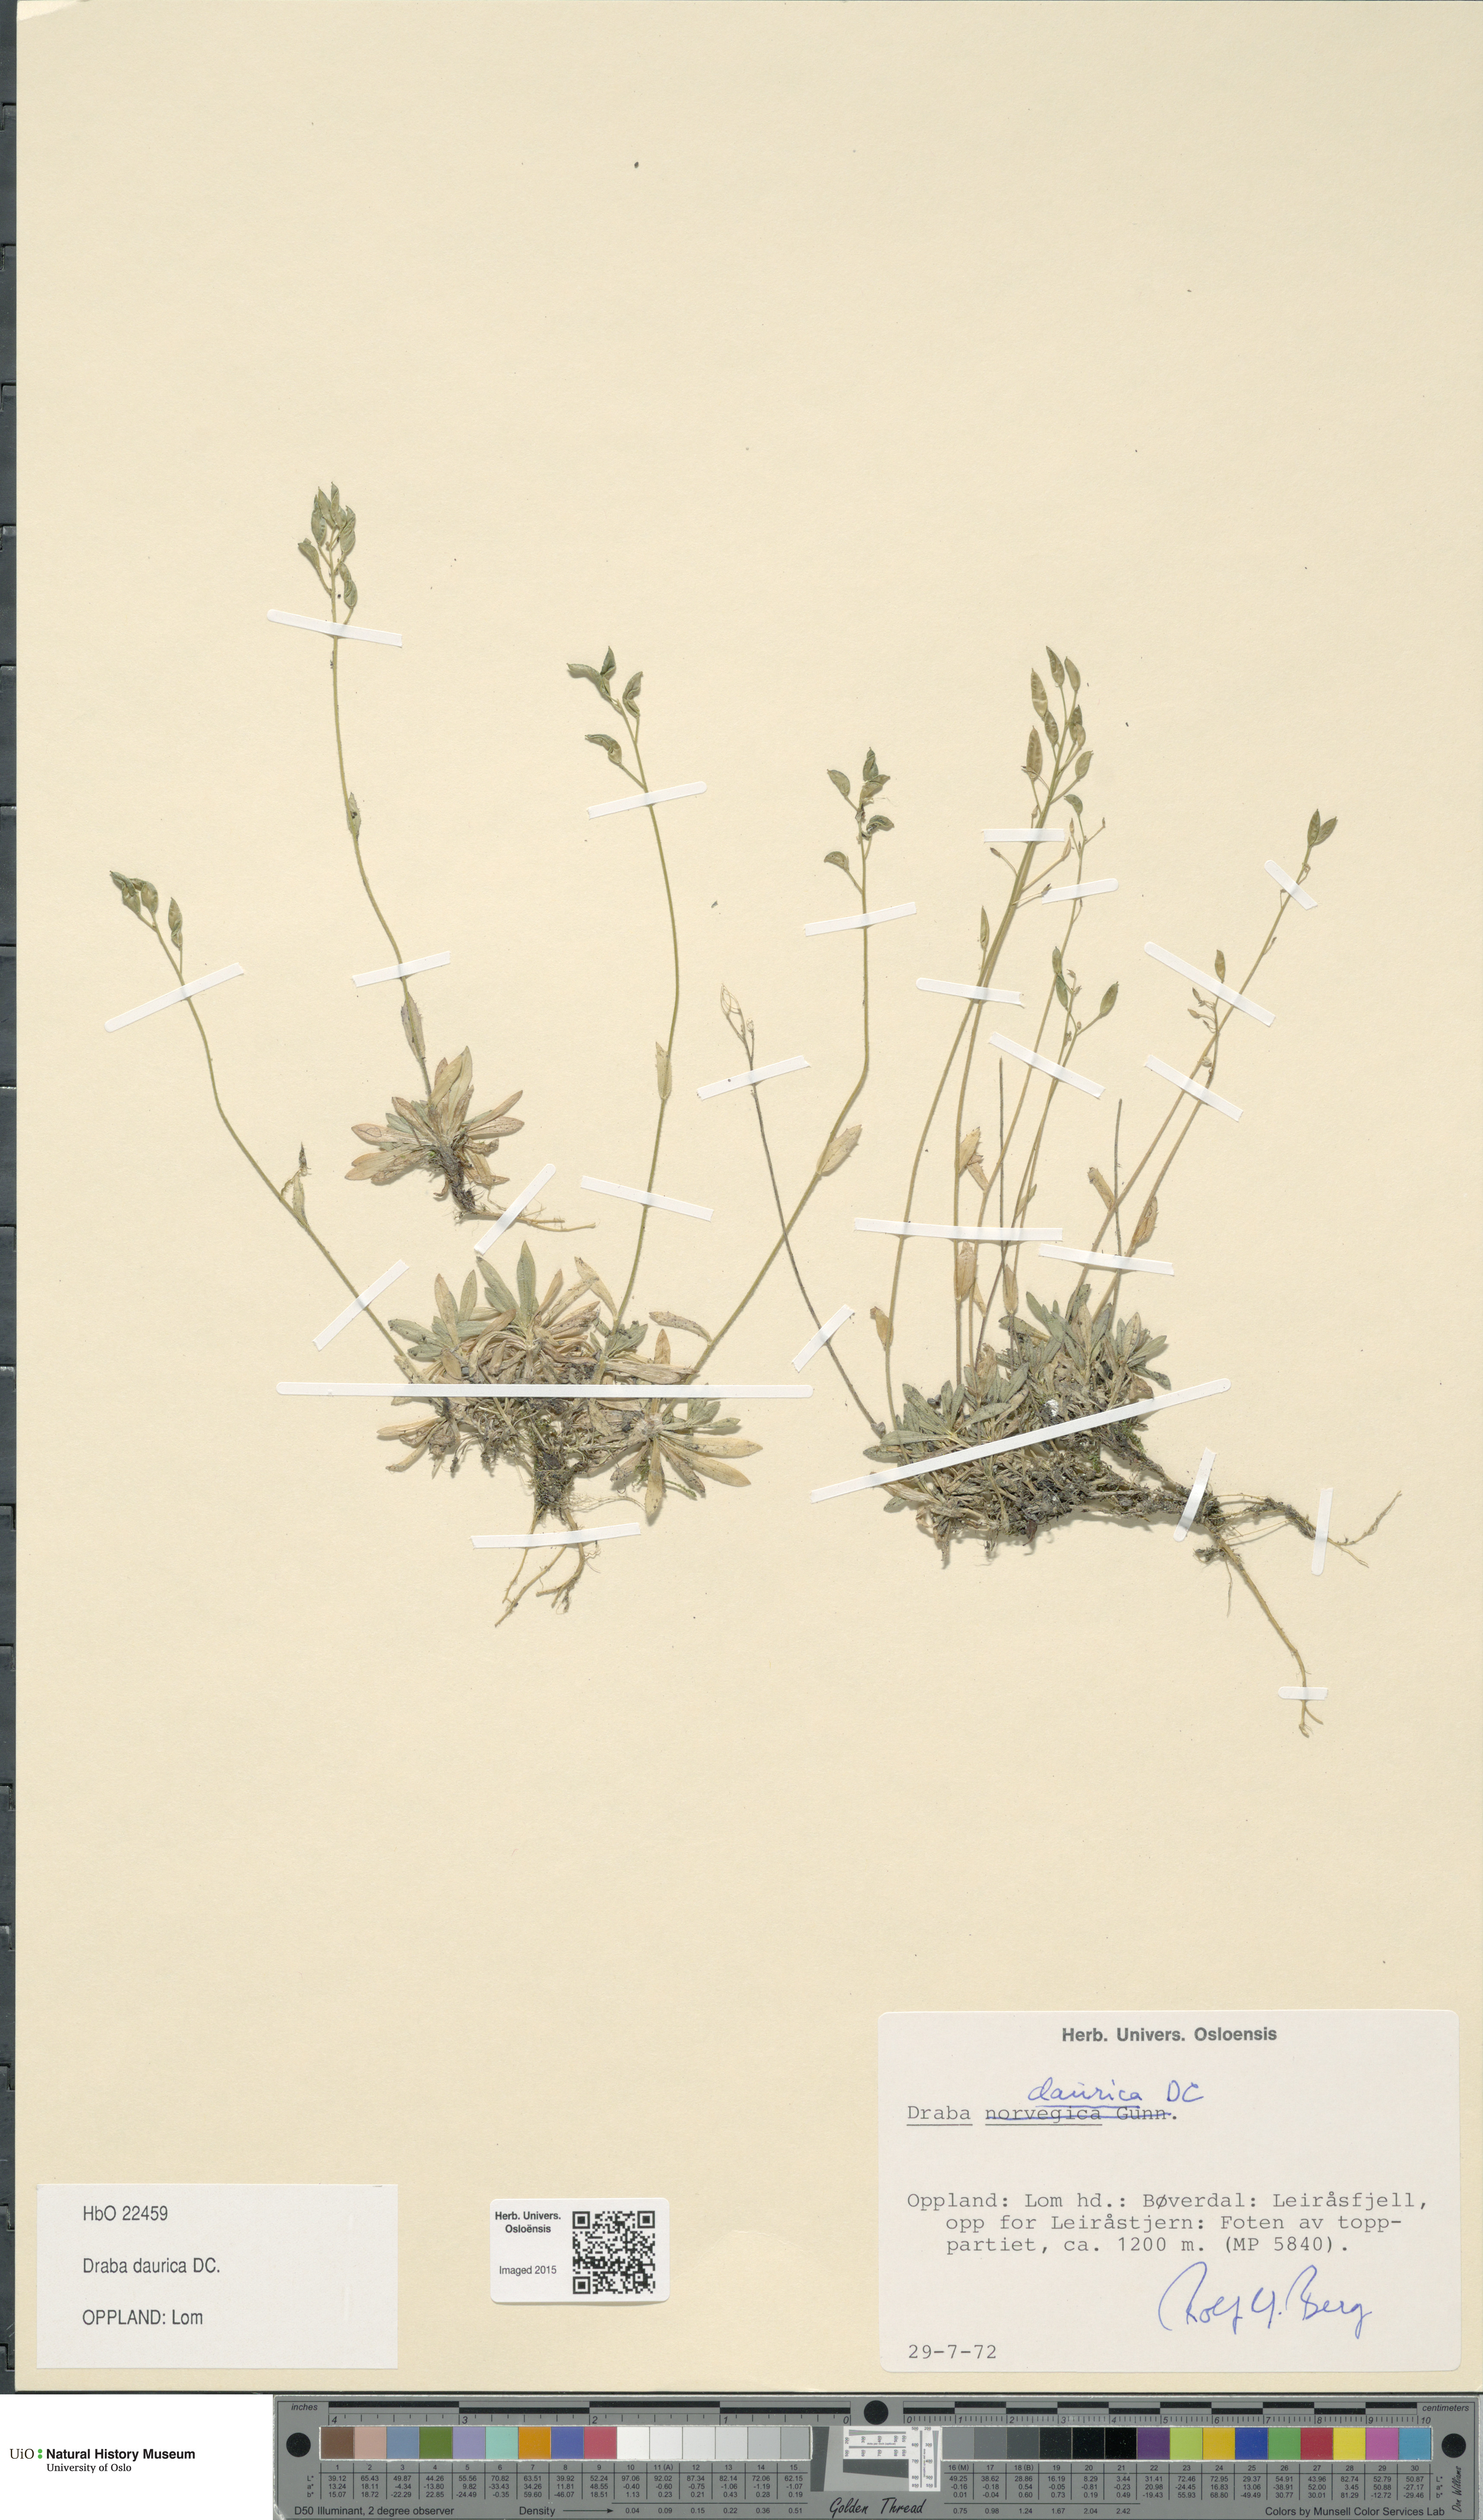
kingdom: Plantae
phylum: Tracheophyta
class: Magnoliopsida
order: Brassicales
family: Brassicaceae
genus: Draba
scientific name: Draba glabella
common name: Glaucous draba
